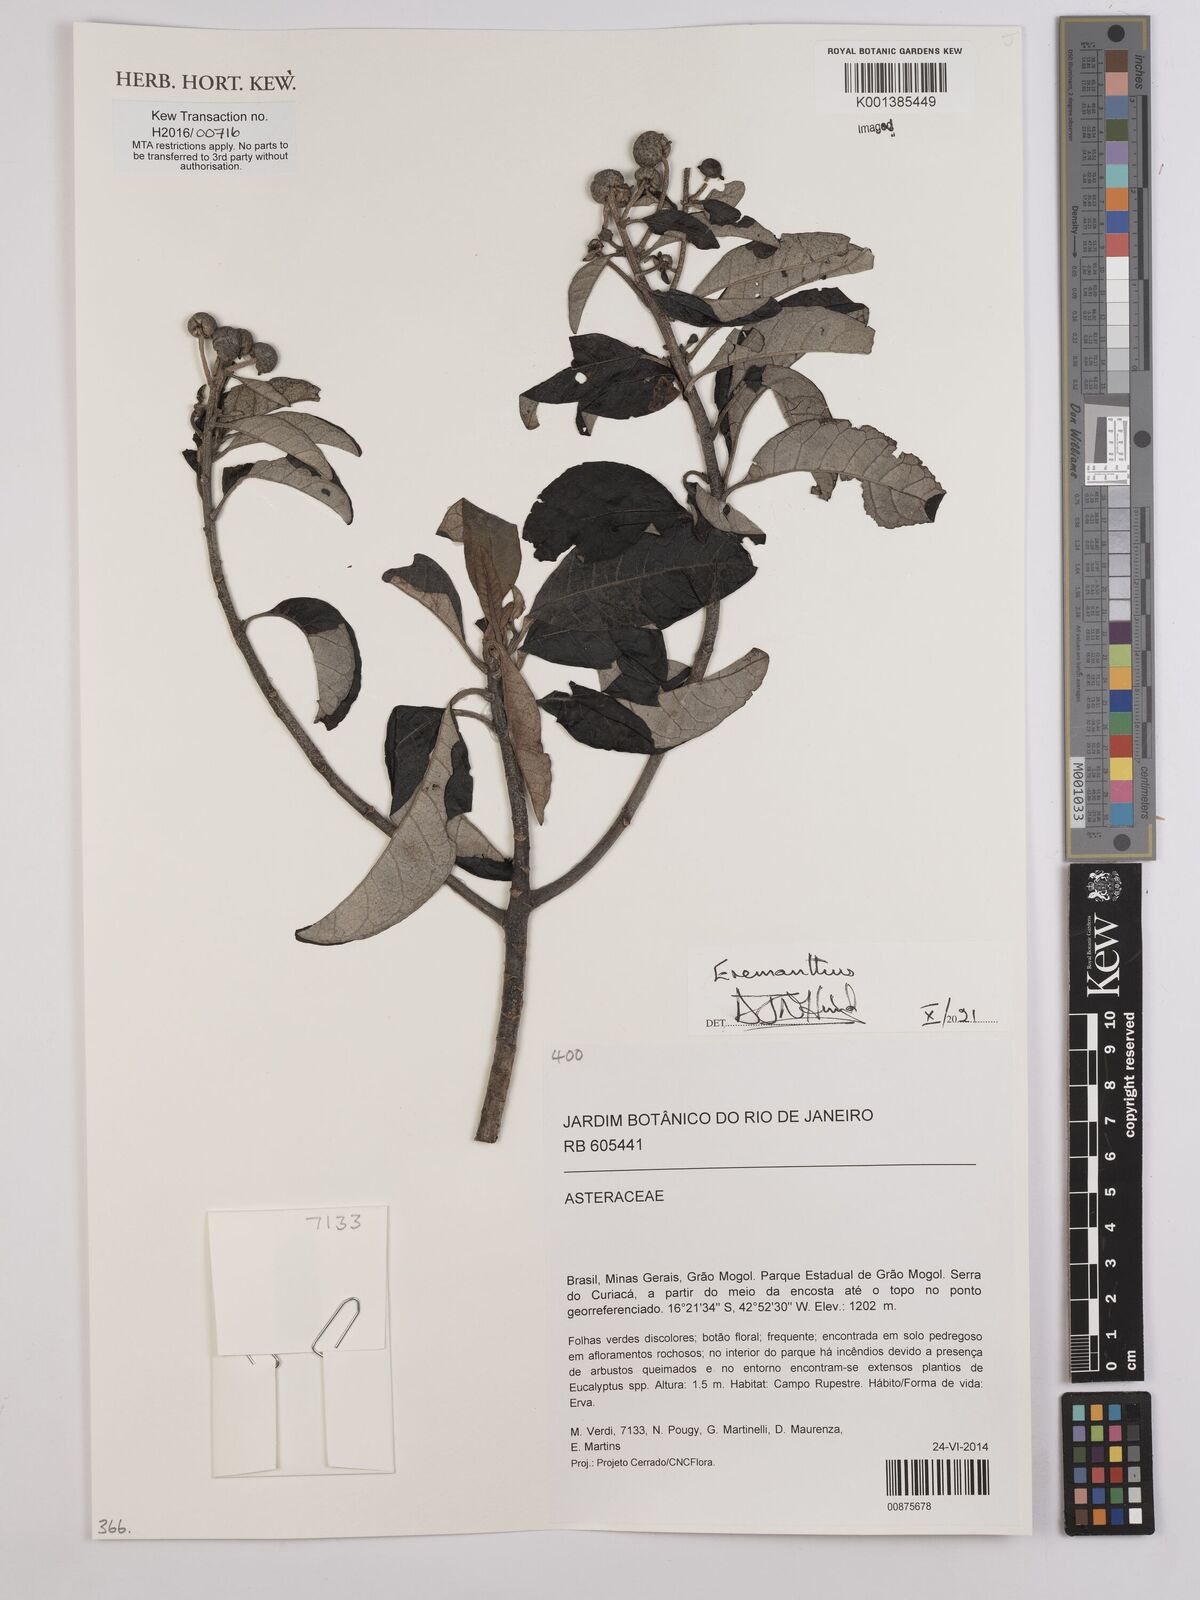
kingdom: Plantae
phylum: Tracheophyta
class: Magnoliopsida
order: Asterales
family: Asteraceae
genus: Eremanthus
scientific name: Eremanthus
